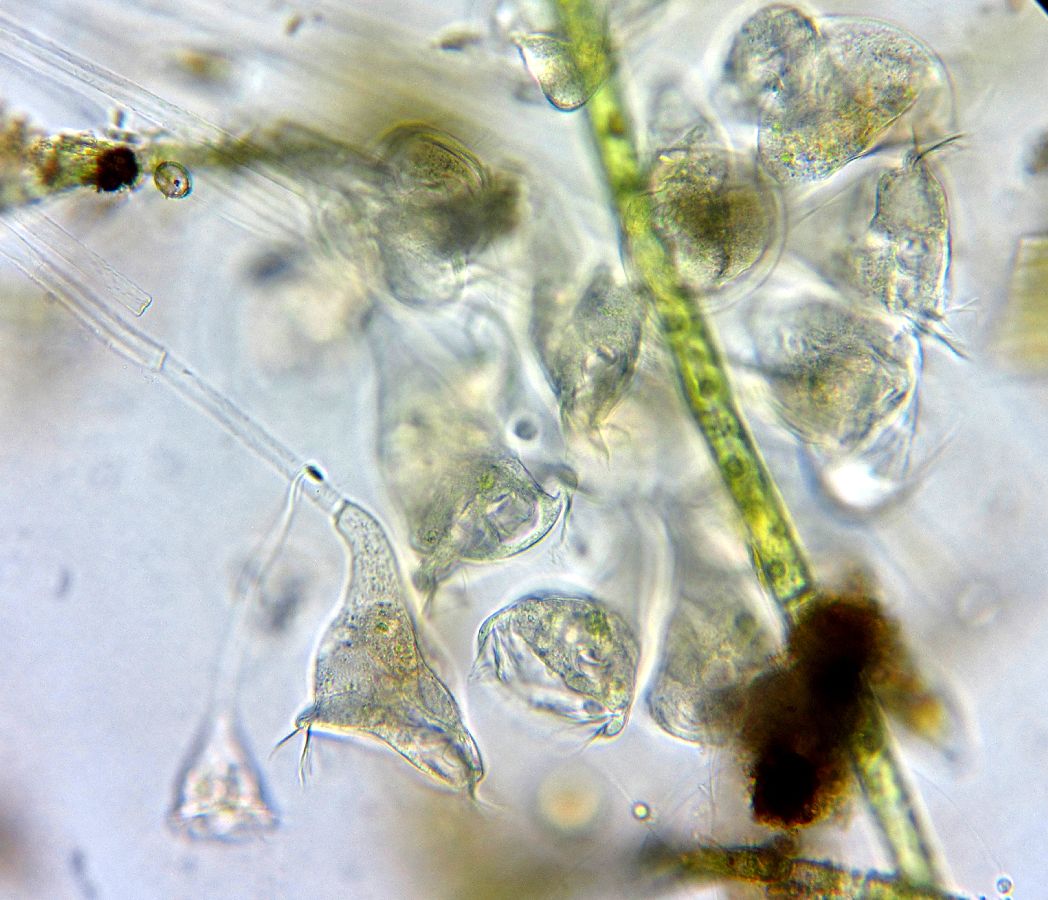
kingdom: Chromista
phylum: Ciliophora
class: Oligohymenophorea
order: Peritrichida
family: Epistylididae
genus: Epistylis
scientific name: Epistylis plicatilis
